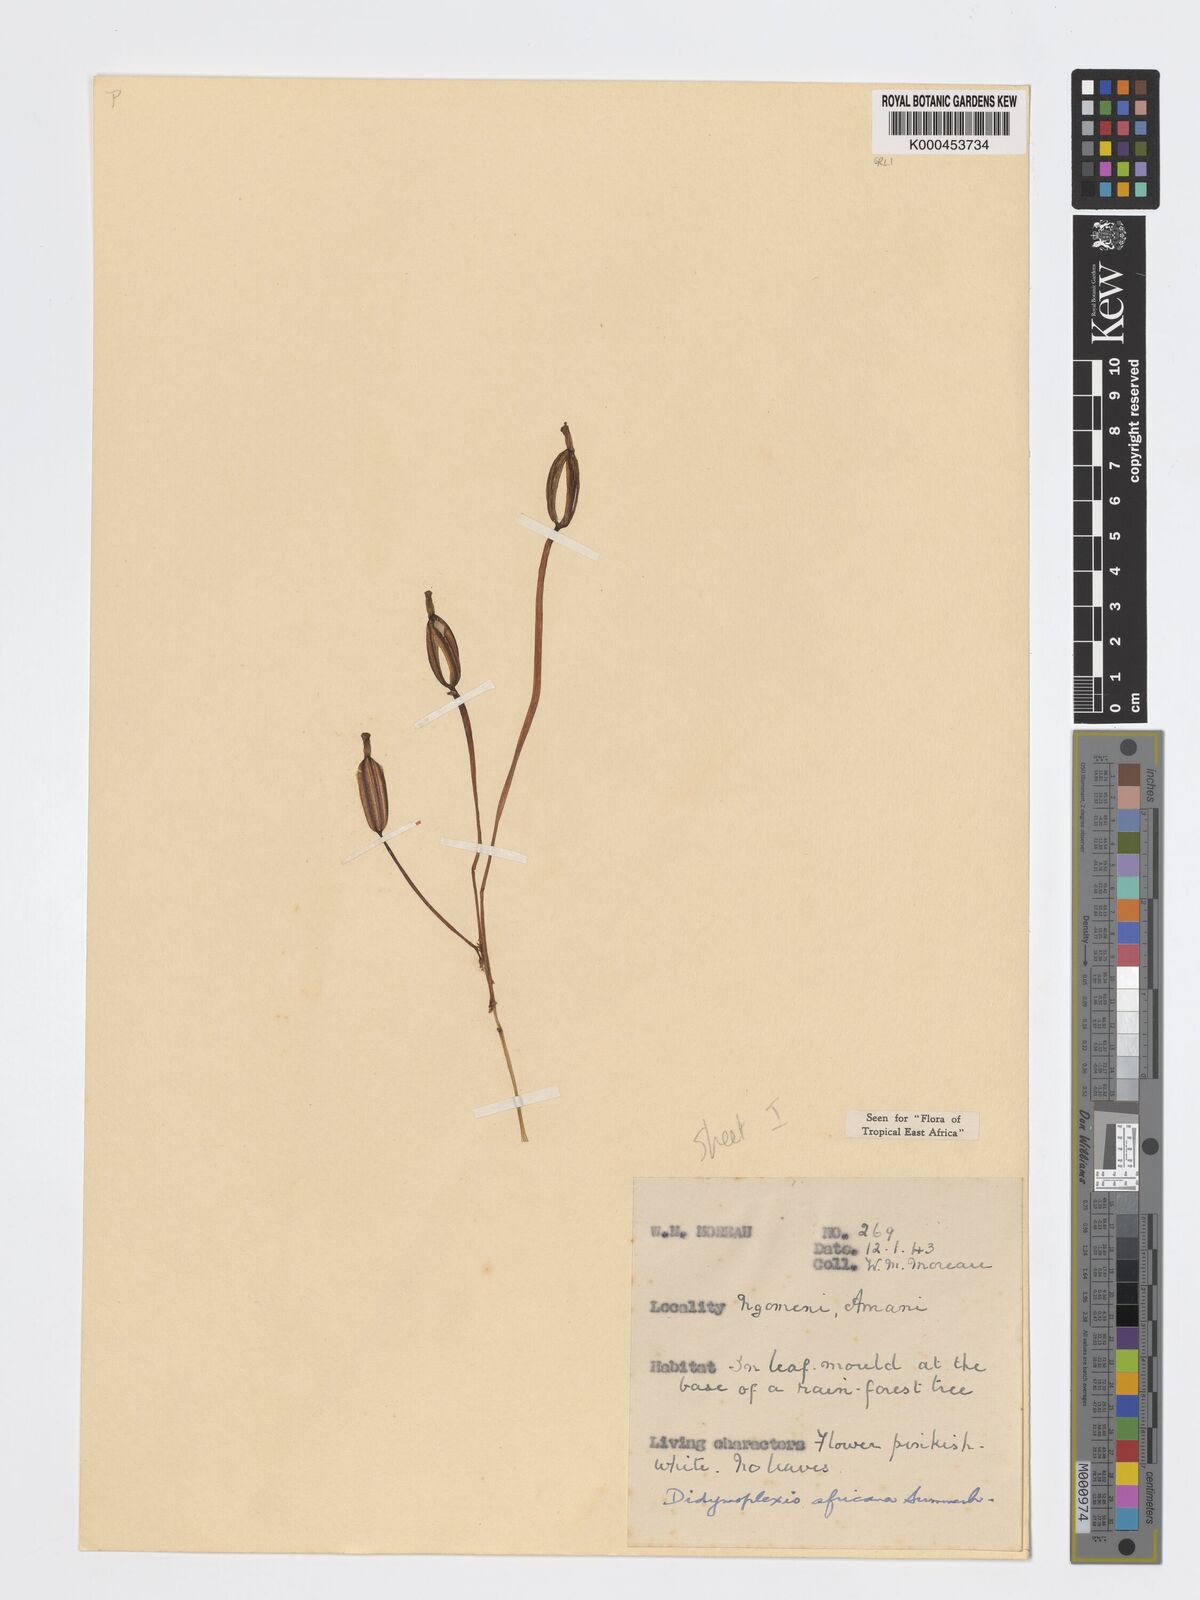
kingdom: Plantae
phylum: Tracheophyta
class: Liliopsida
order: Asparagales
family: Orchidaceae
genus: Didymoplexis
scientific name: Didymoplexis africana
